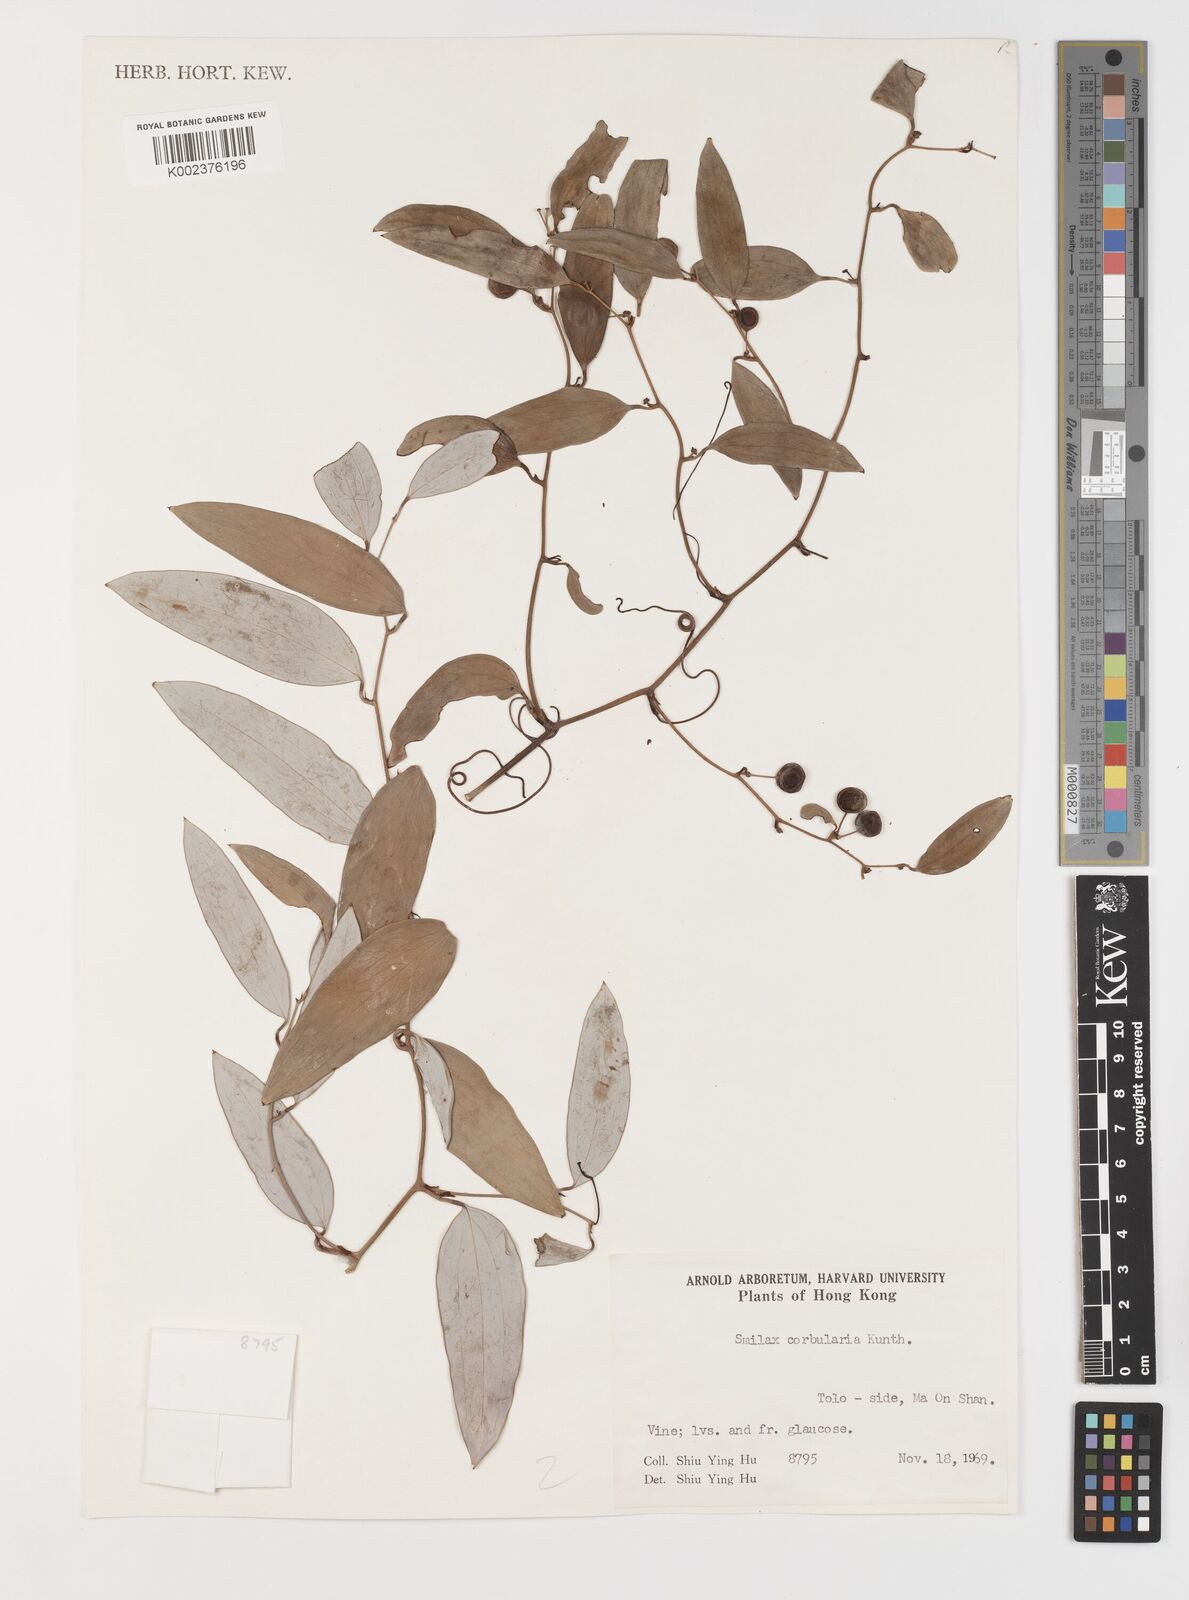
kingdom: Plantae
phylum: Tracheophyta
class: Liliopsida
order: Liliales
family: Smilacaceae
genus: Smilax
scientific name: Smilax corbularia
